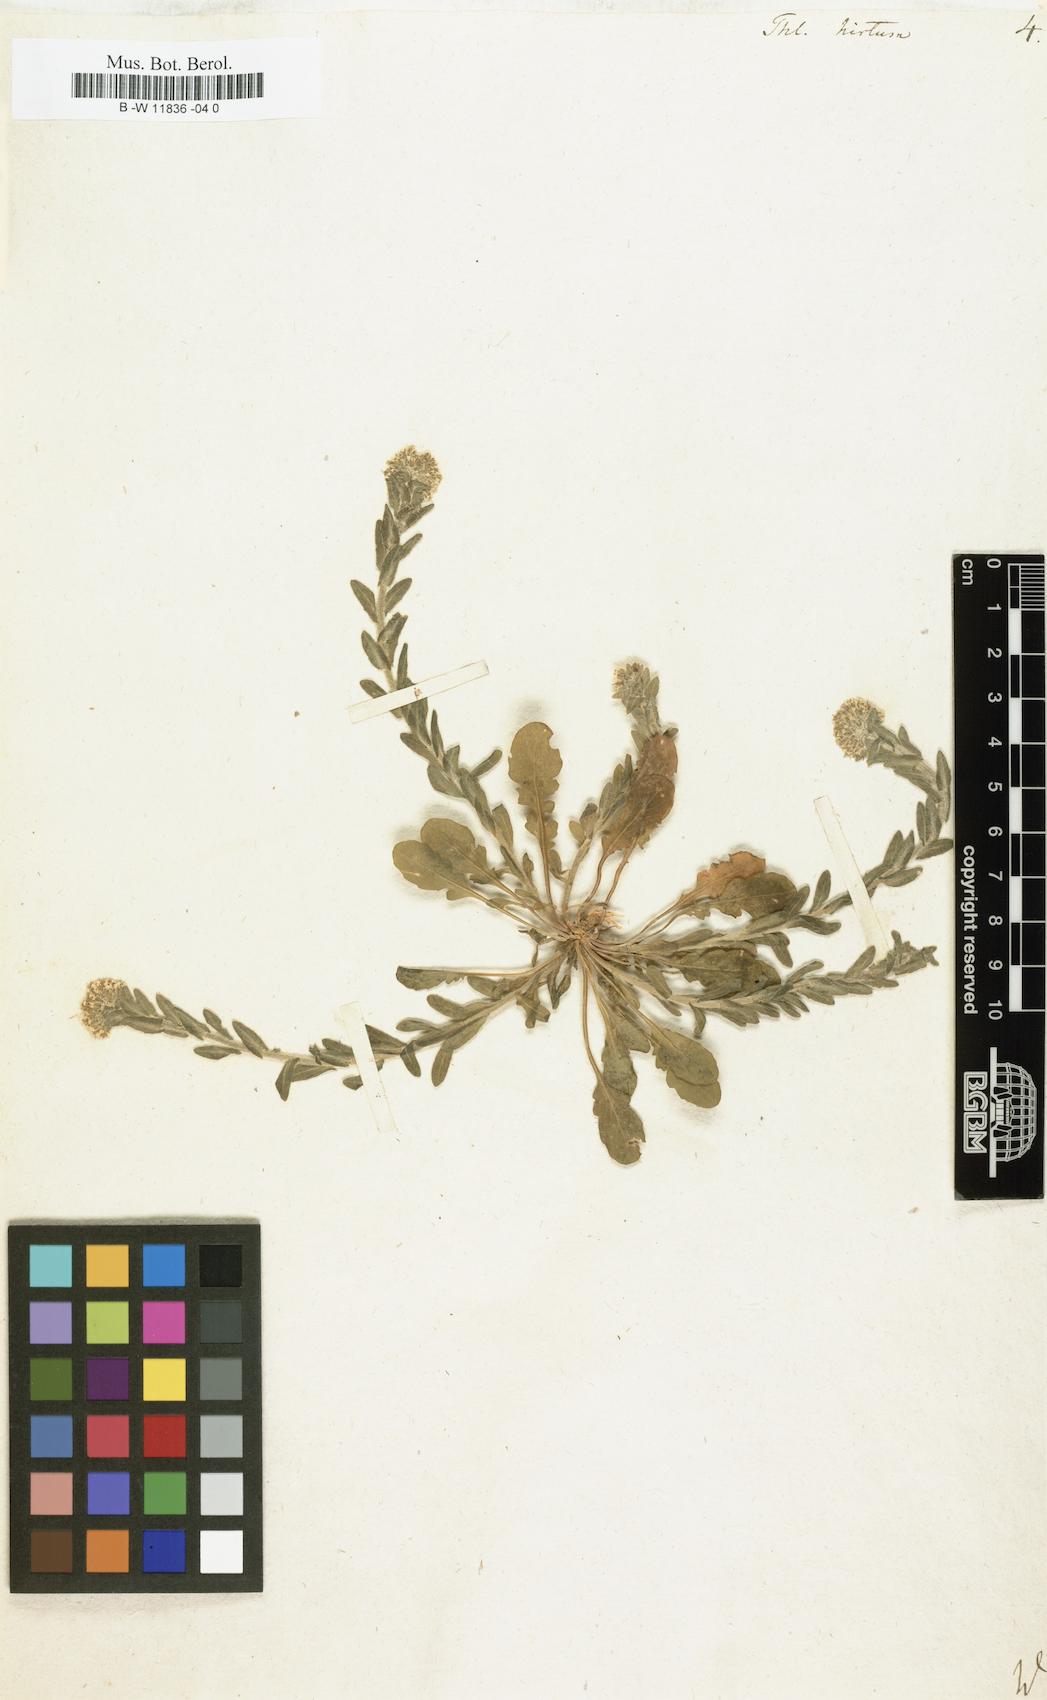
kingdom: Plantae
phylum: Tracheophyta
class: Magnoliopsida
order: Brassicales
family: Brassicaceae
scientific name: Brassicaceae
